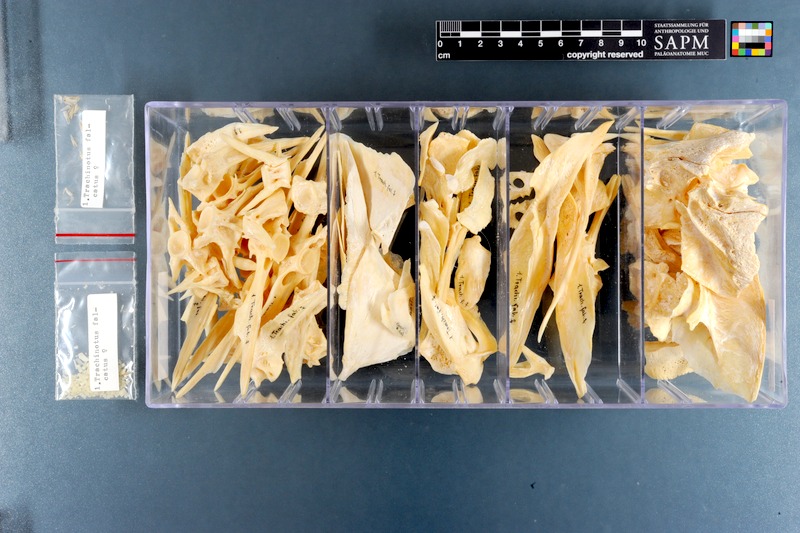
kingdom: Animalia
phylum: Chordata
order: Perciformes
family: Carangidae
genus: Trachinotus
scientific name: Trachinotus falcatus
